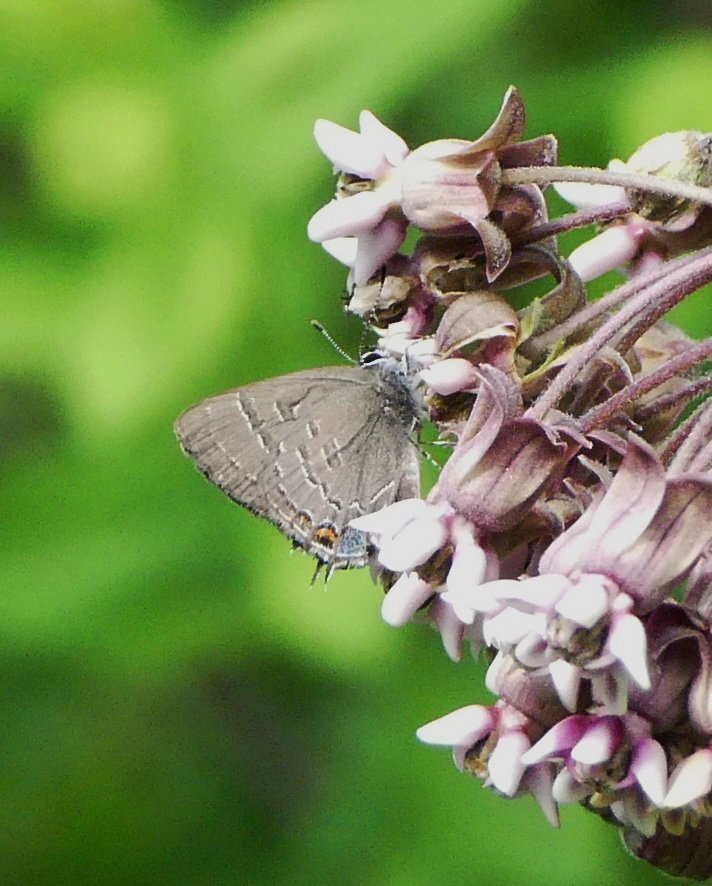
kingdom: Animalia
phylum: Arthropoda
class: Insecta
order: Lepidoptera
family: Lycaenidae
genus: Satyrium
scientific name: Satyrium calanus
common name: Banded Hairstreak
